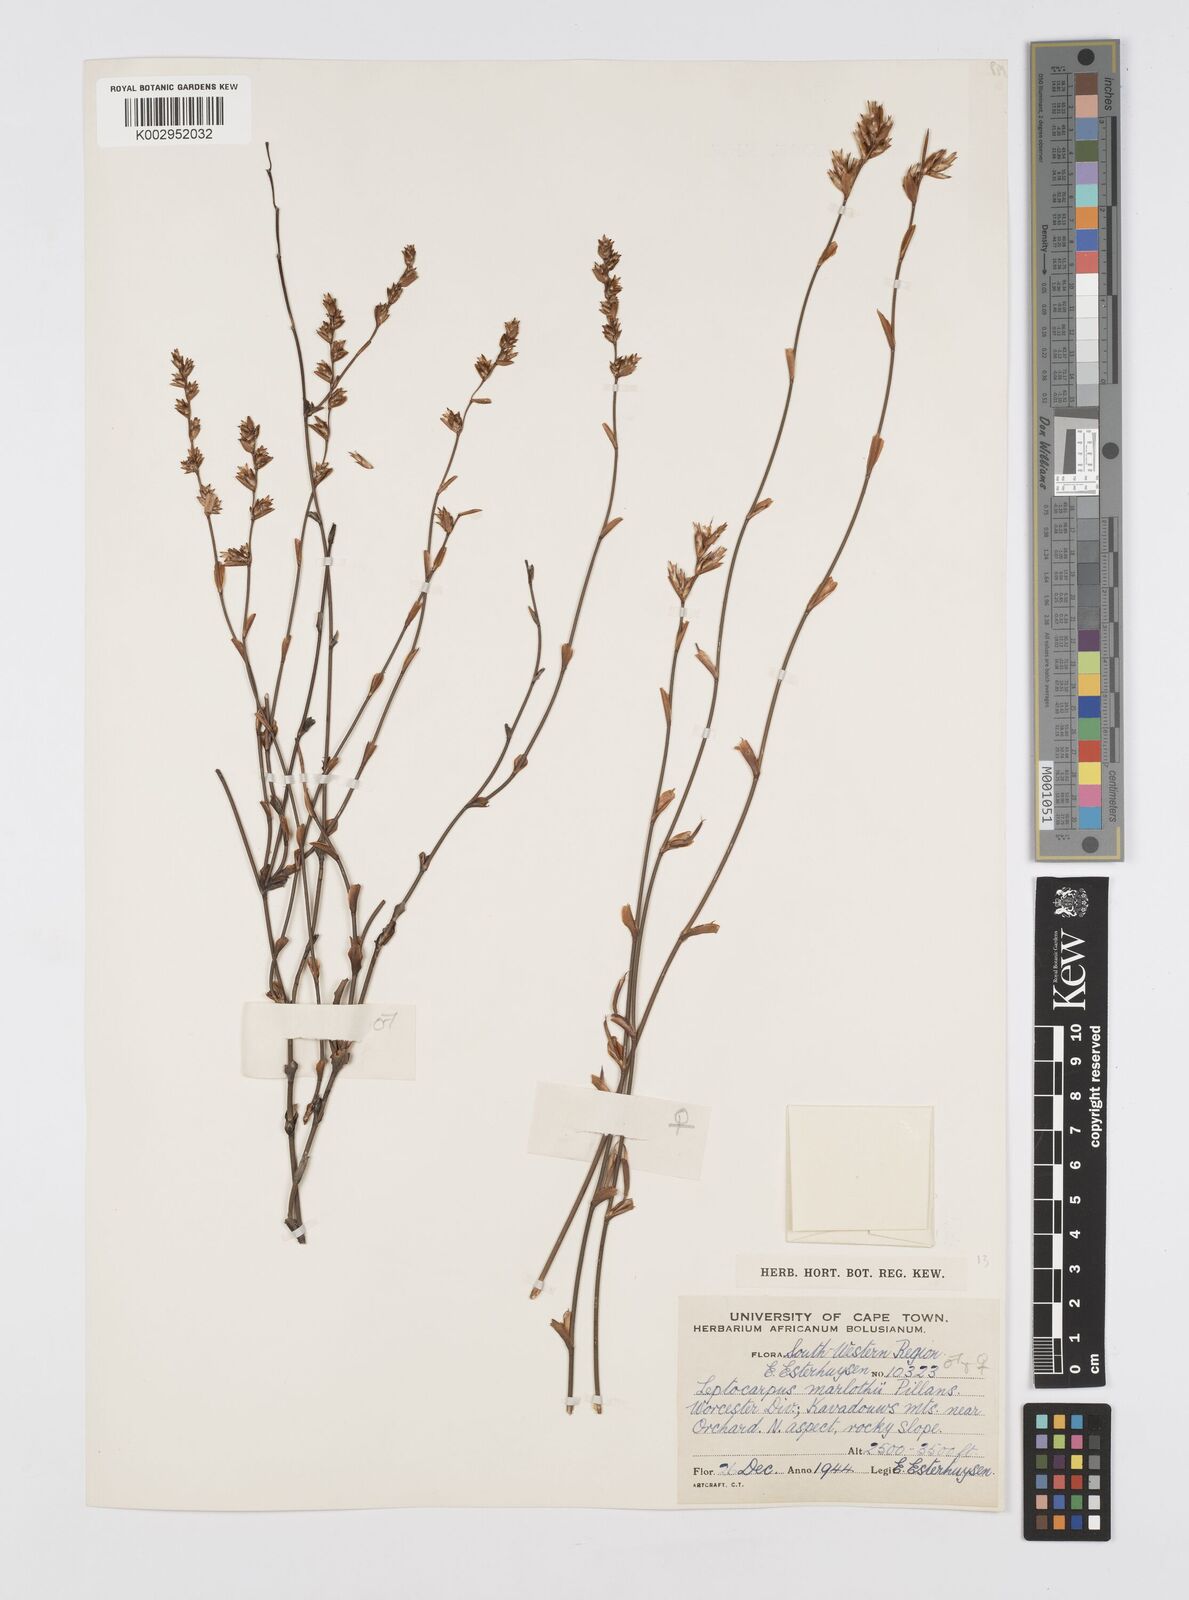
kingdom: Plantae
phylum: Tracheophyta
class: Liliopsida
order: Poales
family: Restionaceae
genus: Restio
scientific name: Restio marlothii
